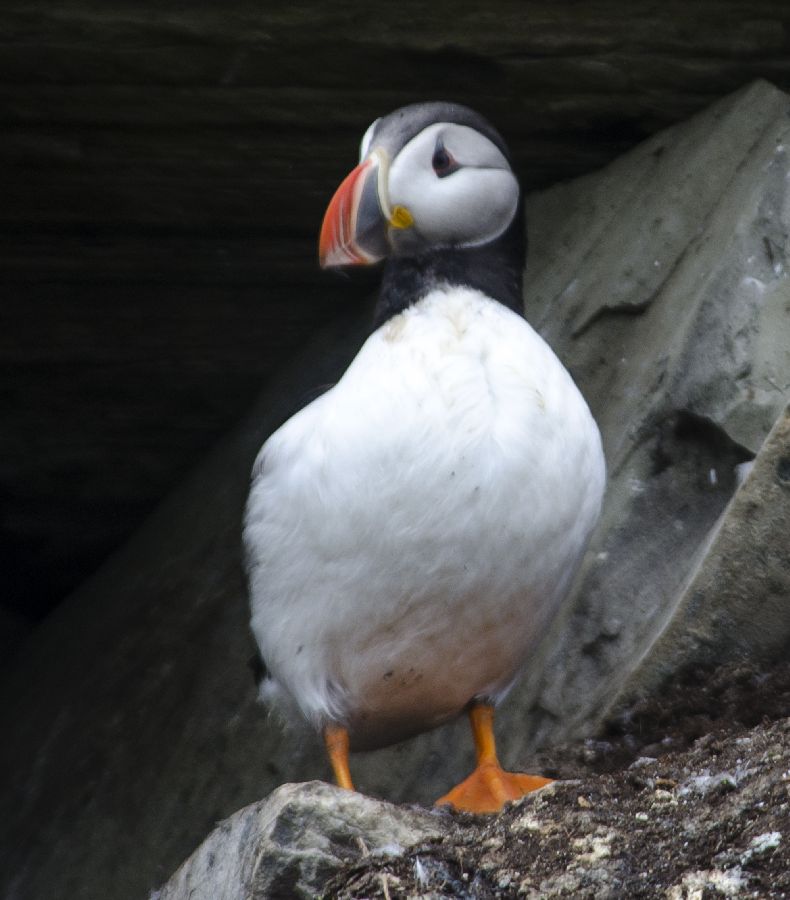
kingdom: Animalia
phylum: Chordata
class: Aves
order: Charadriiformes
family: Alcidae
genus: Fratercula
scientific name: Fratercula arctica
